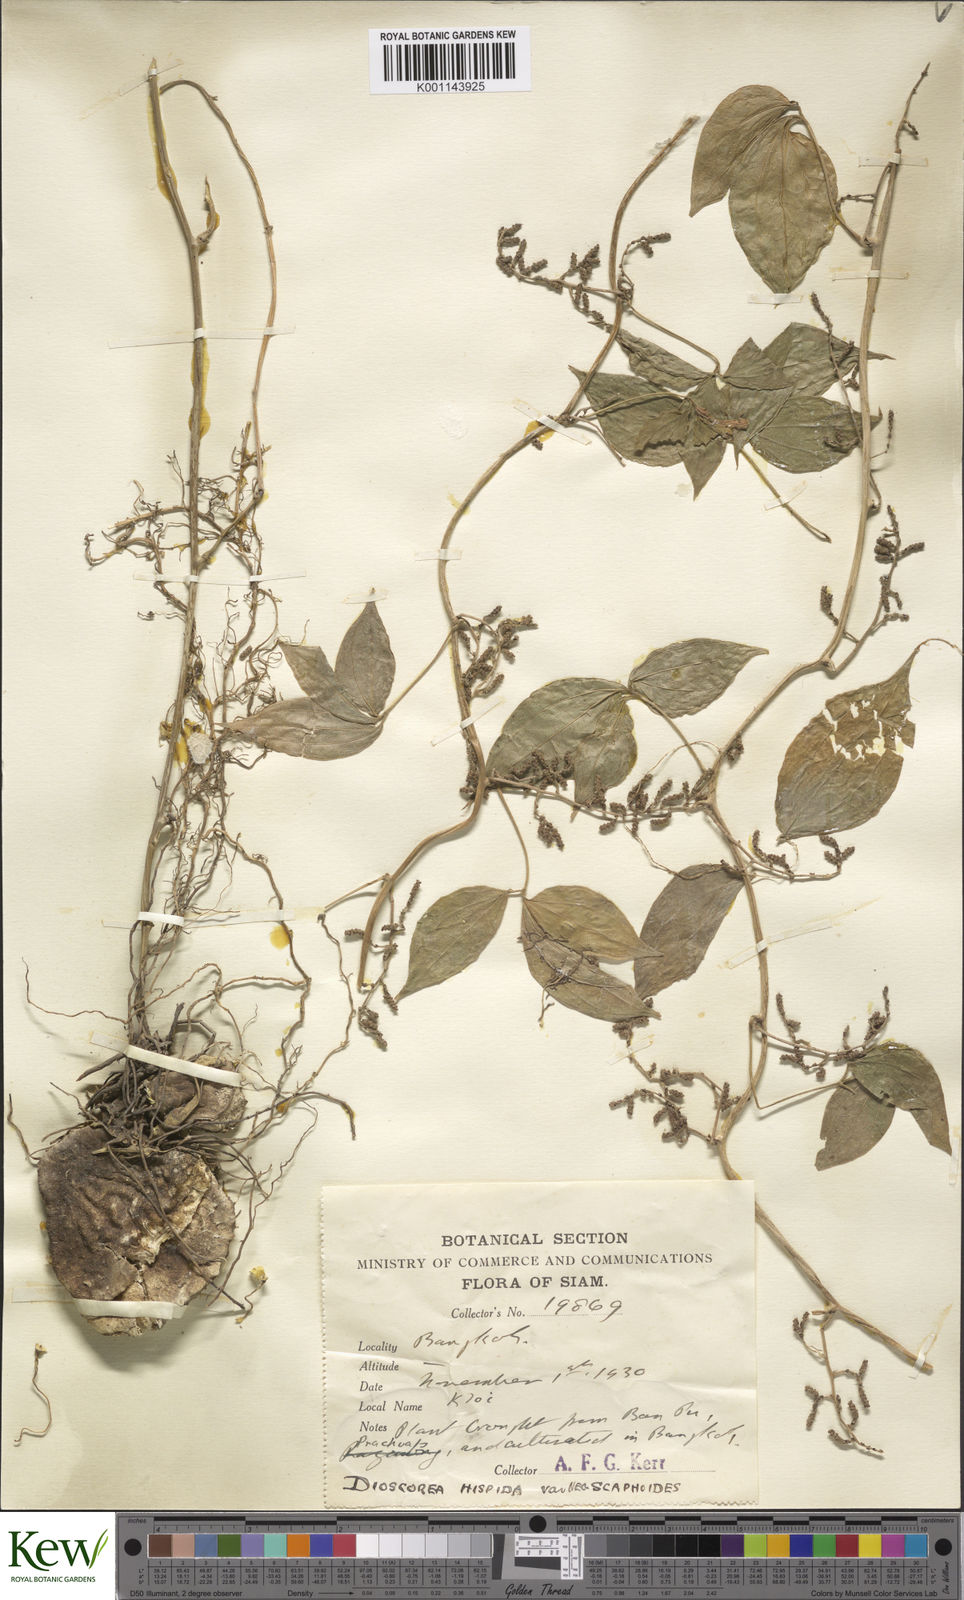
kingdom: Plantae
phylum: Tracheophyta
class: Liliopsida
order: Dioscoreales
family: Dioscoreaceae
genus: Dioscorea
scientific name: Dioscorea hispida
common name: Asiatic bitter yam
